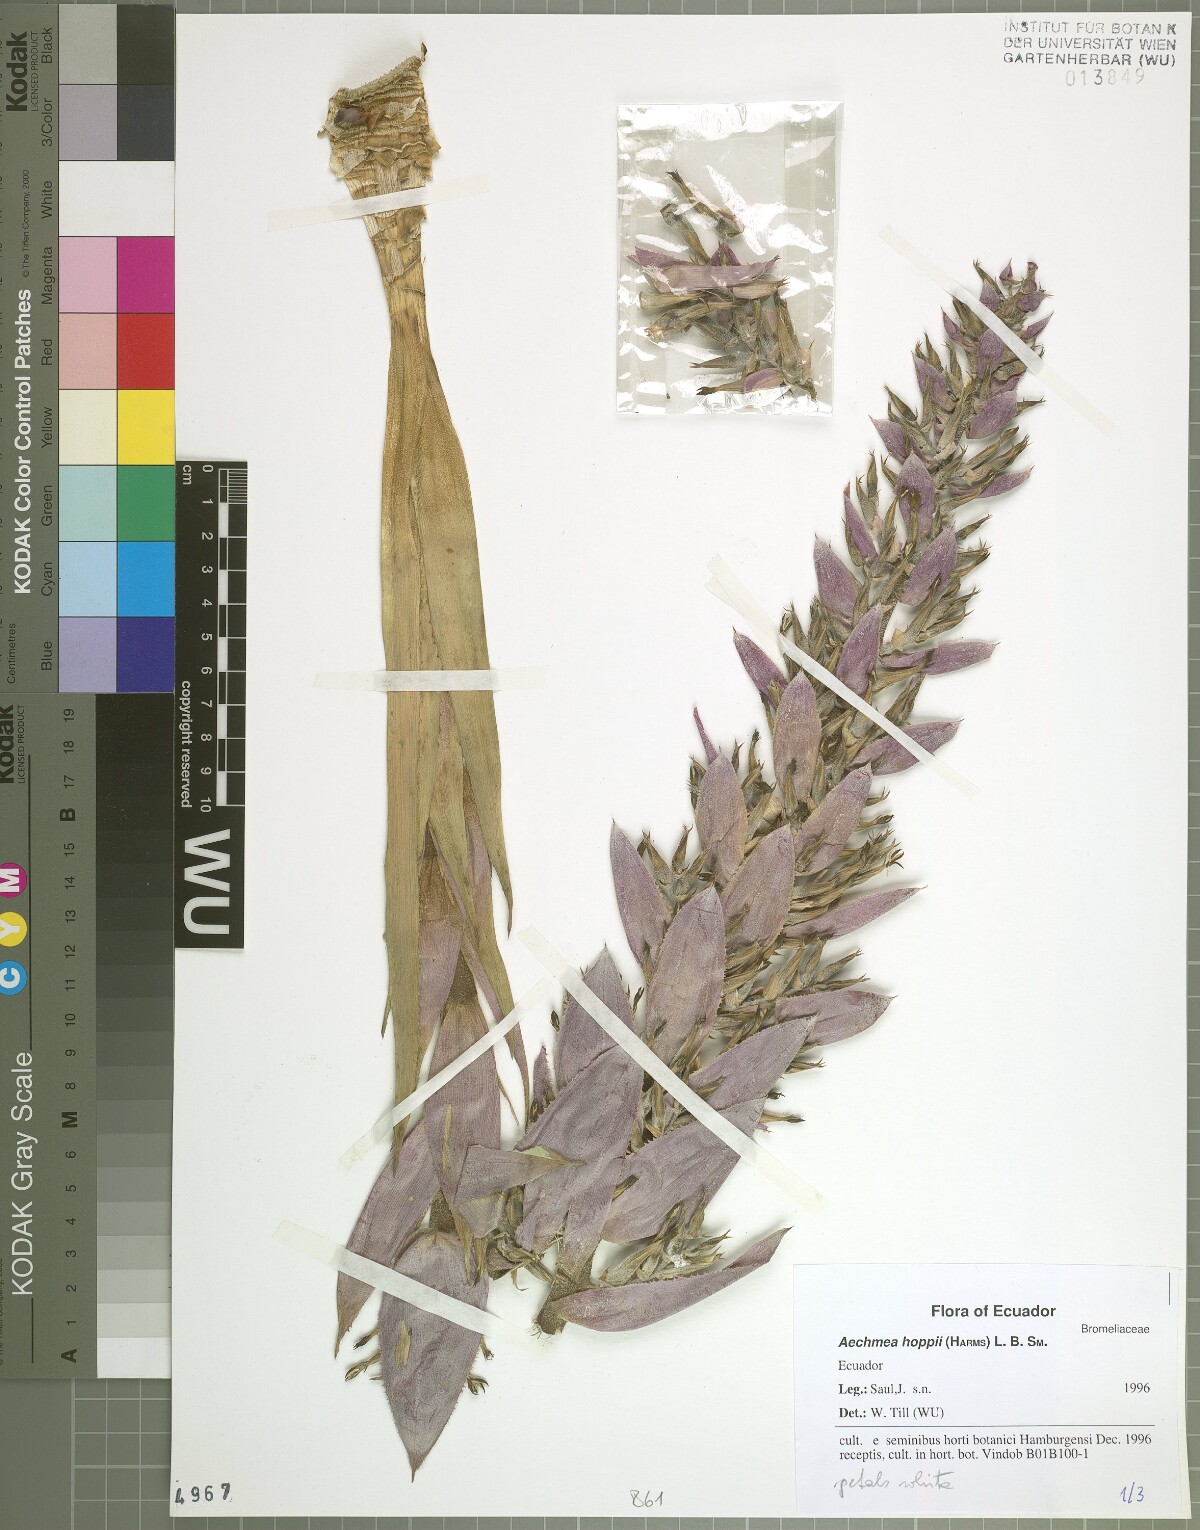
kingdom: Plantae
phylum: Tracheophyta
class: Liliopsida
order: Poales
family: Bromeliaceae
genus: Aechmea
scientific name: Aechmea hoppii
